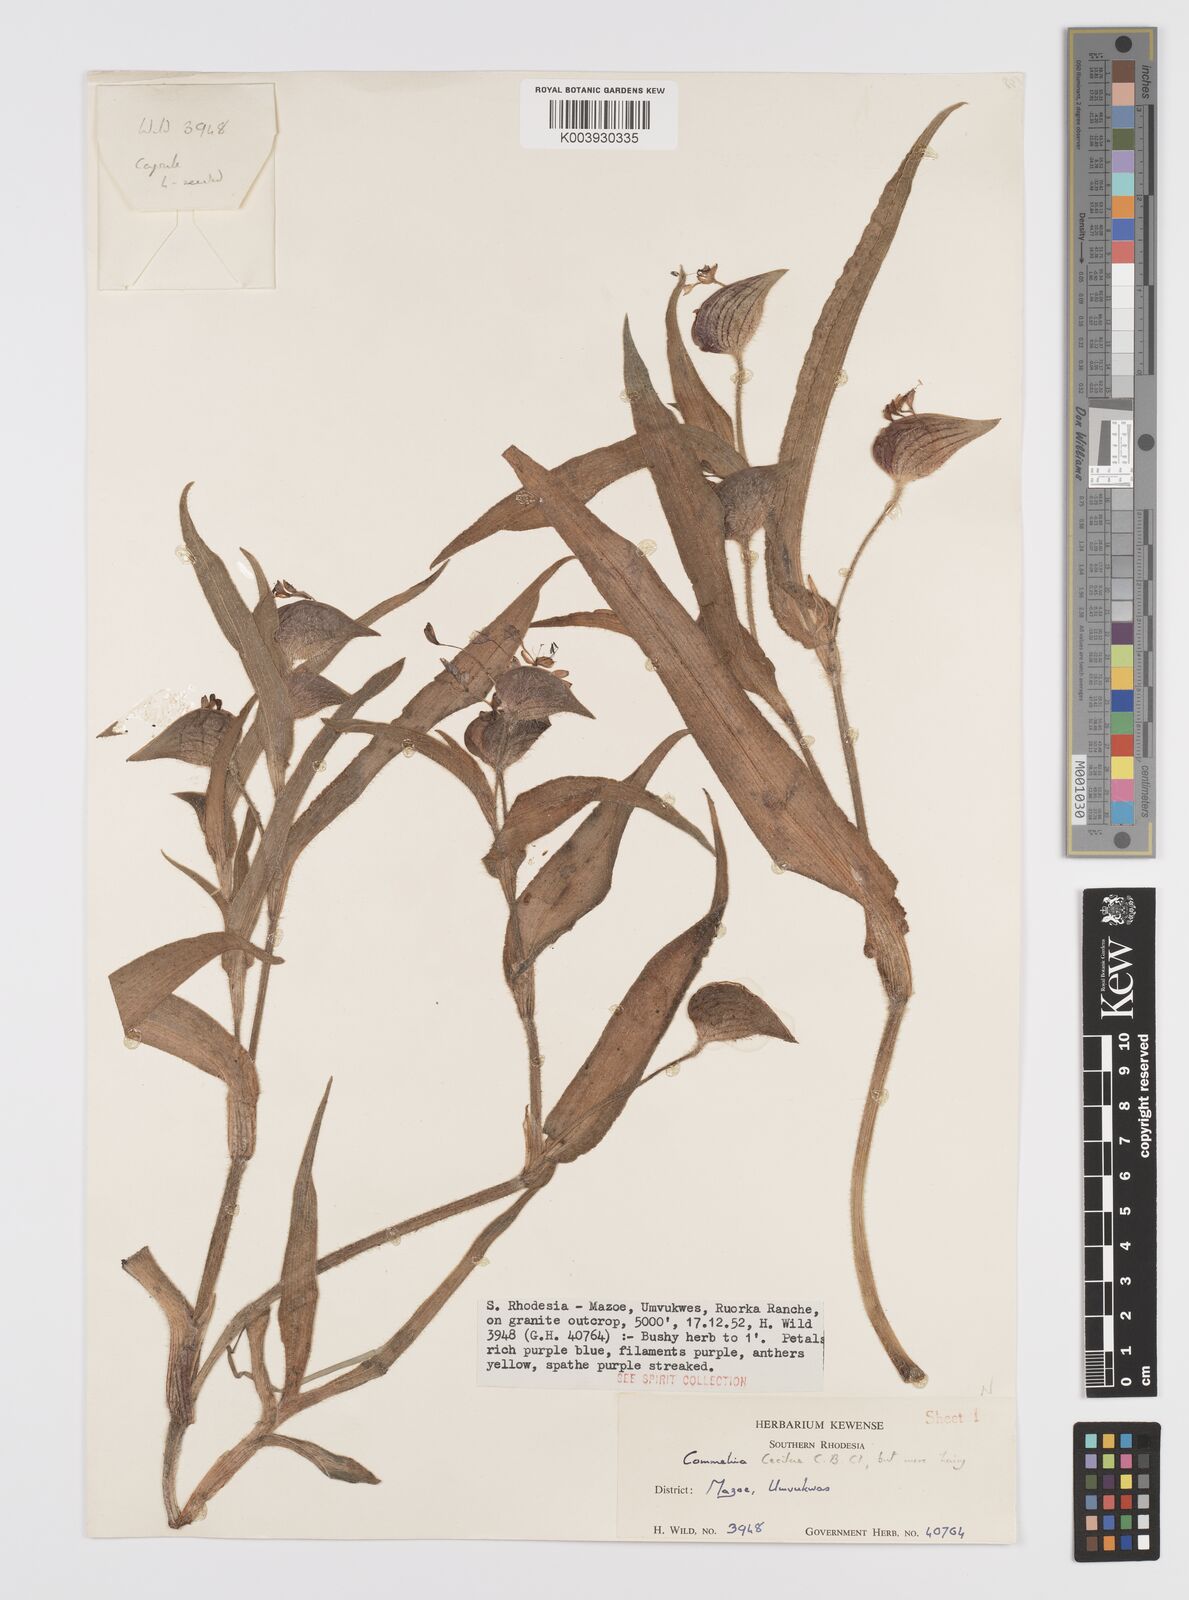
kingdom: Plantae
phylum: Tracheophyta
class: Liliopsida
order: Commelinales
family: Commelinaceae
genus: Commelina
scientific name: Commelina cecilae
